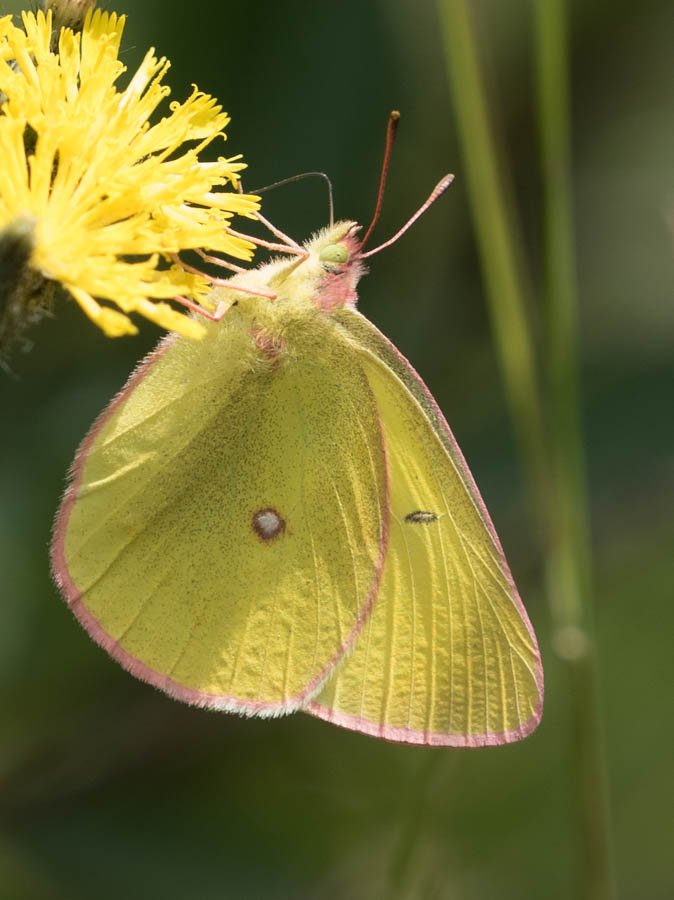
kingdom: Animalia
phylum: Arthropoda
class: Insecta
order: Lepidoptera
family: Pieridae
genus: Colias
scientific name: Colias interior
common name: Pink-edged Sulphur
